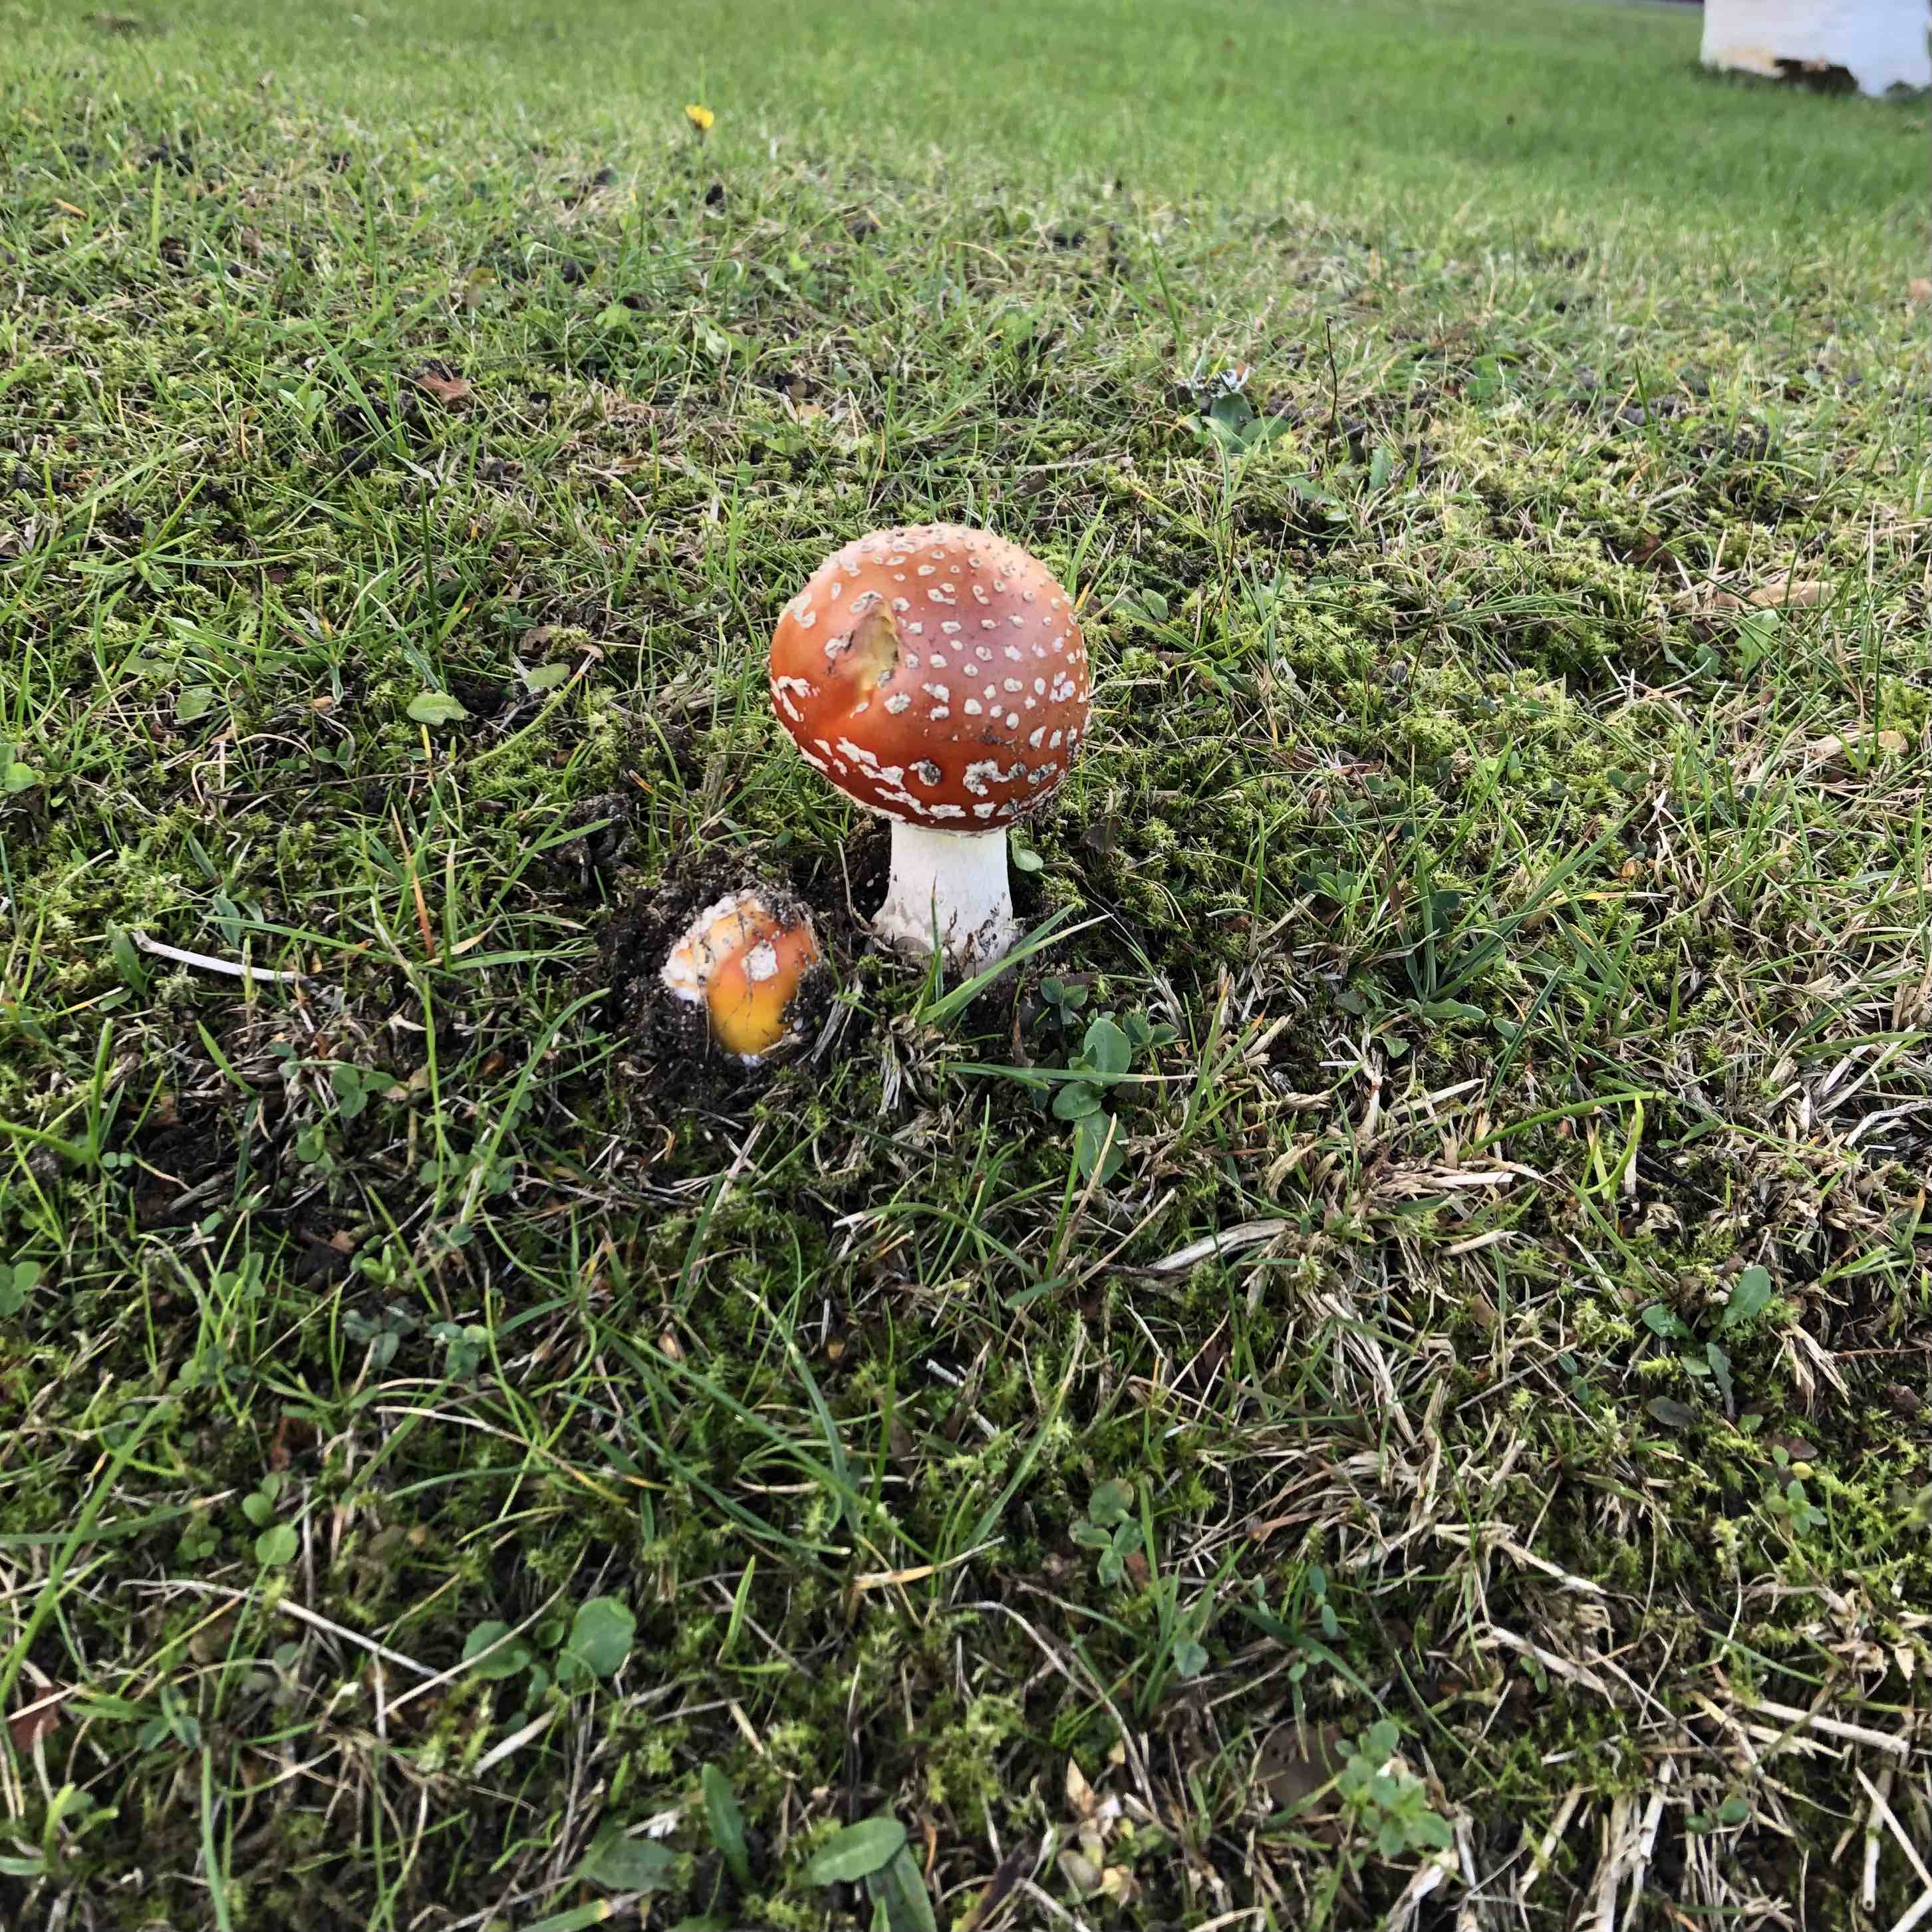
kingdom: Fungi
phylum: Basidiomycota
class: Agaricomycetes
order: Agaricales
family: Amanitaceae
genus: Amanita
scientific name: Amanita muscaria
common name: rød fluesvamp
